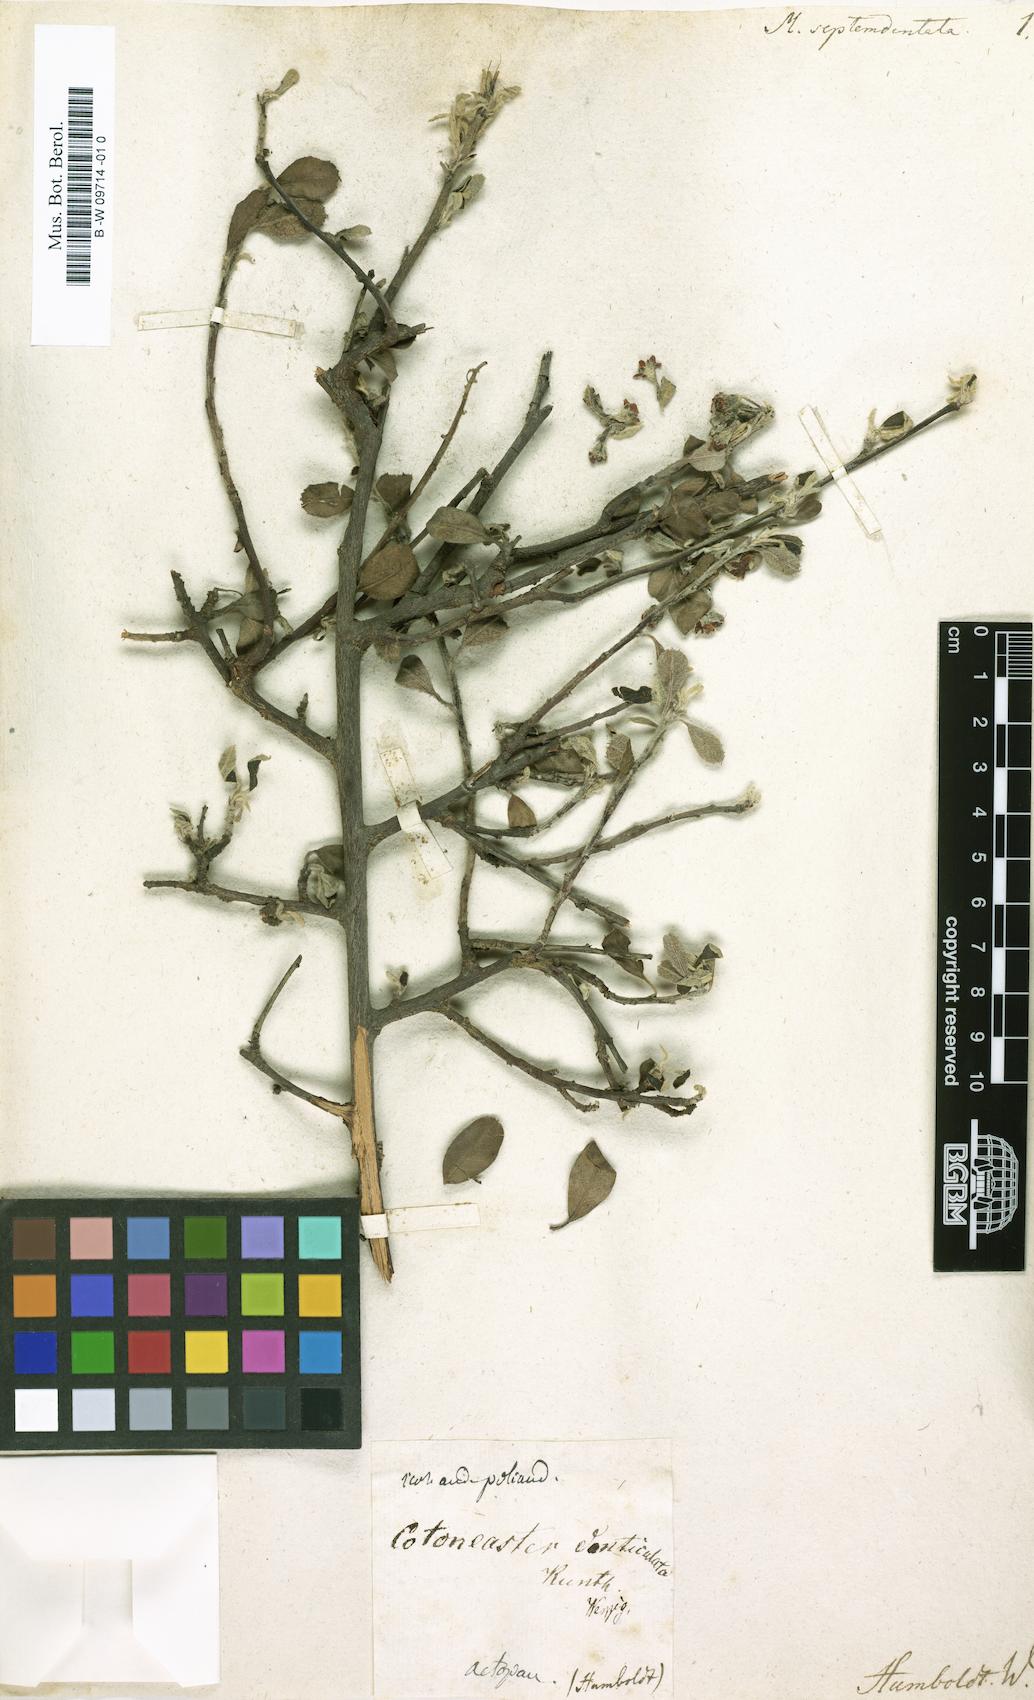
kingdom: Plantae
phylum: Tracheophyta
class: Magnoliopsida
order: Rosales
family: Rosaceae
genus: Mespilus
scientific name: Mespilus
